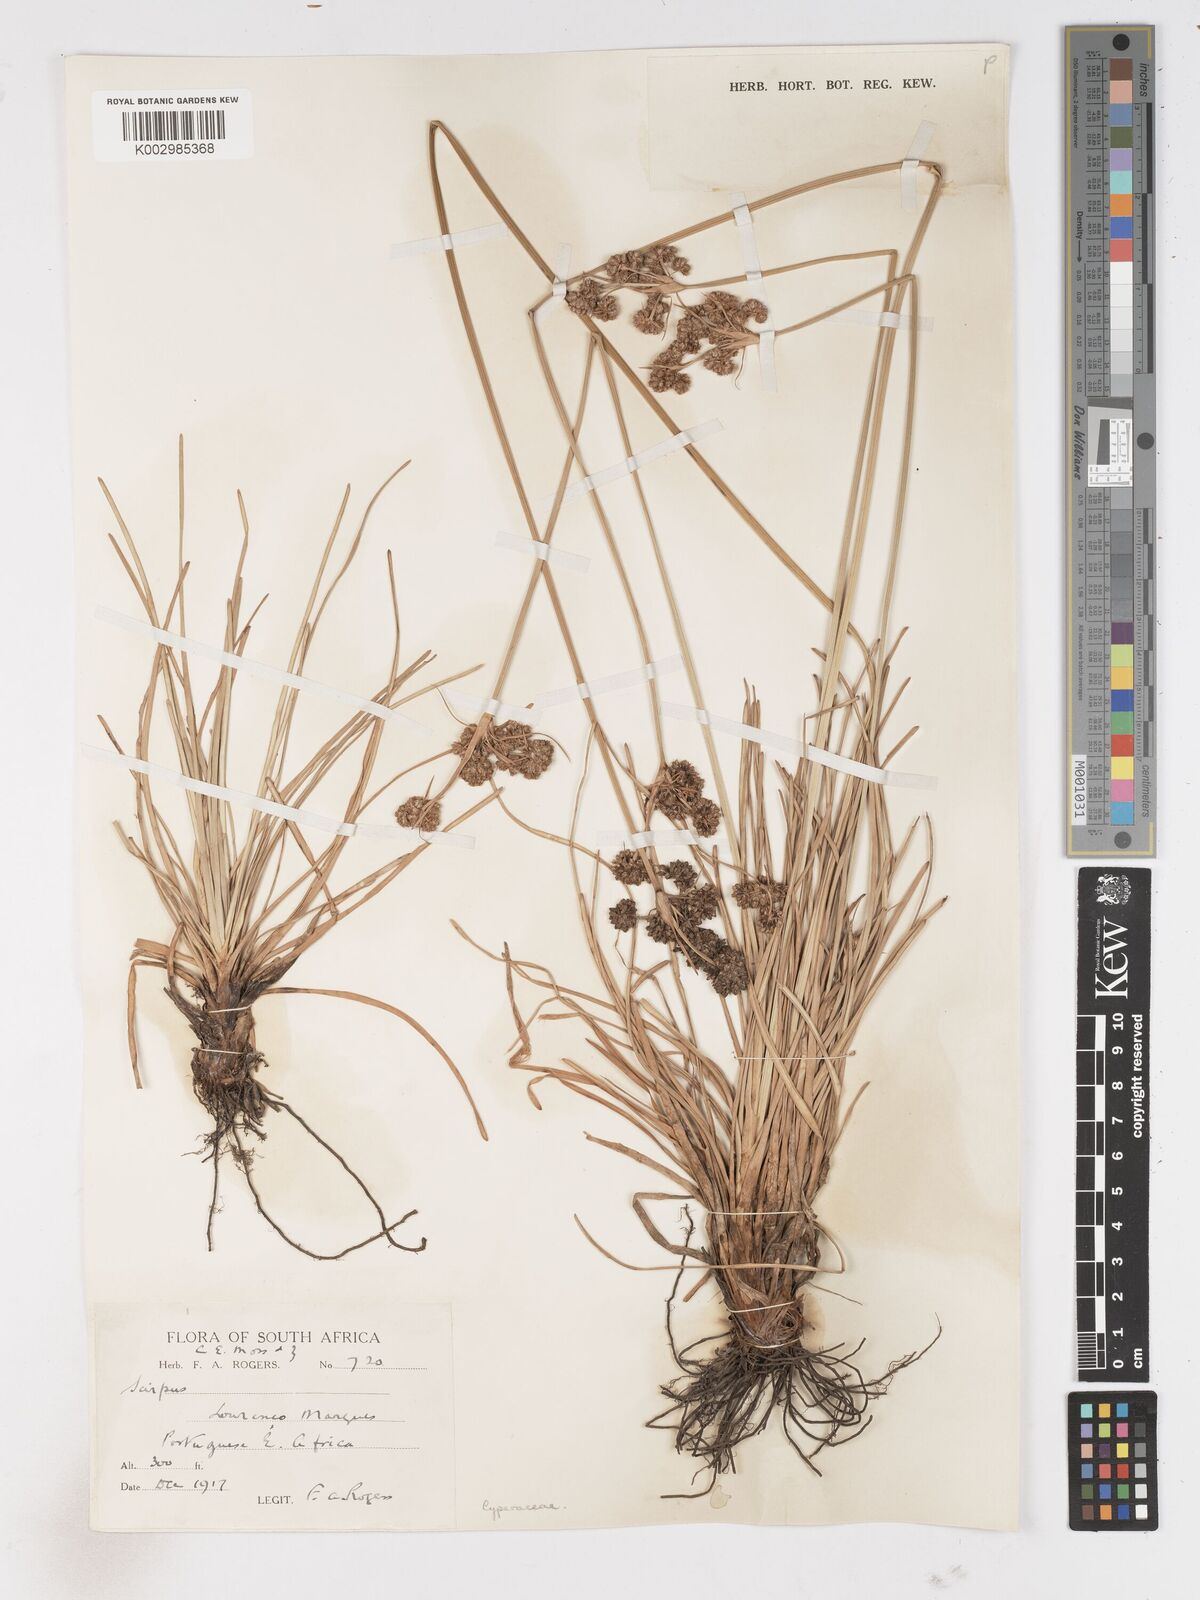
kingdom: Plantae
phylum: Tracheophyta
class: Liliopsida
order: Poales
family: Cyperaceae
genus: Fimbristylis
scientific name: Fimbristylis cymosa
